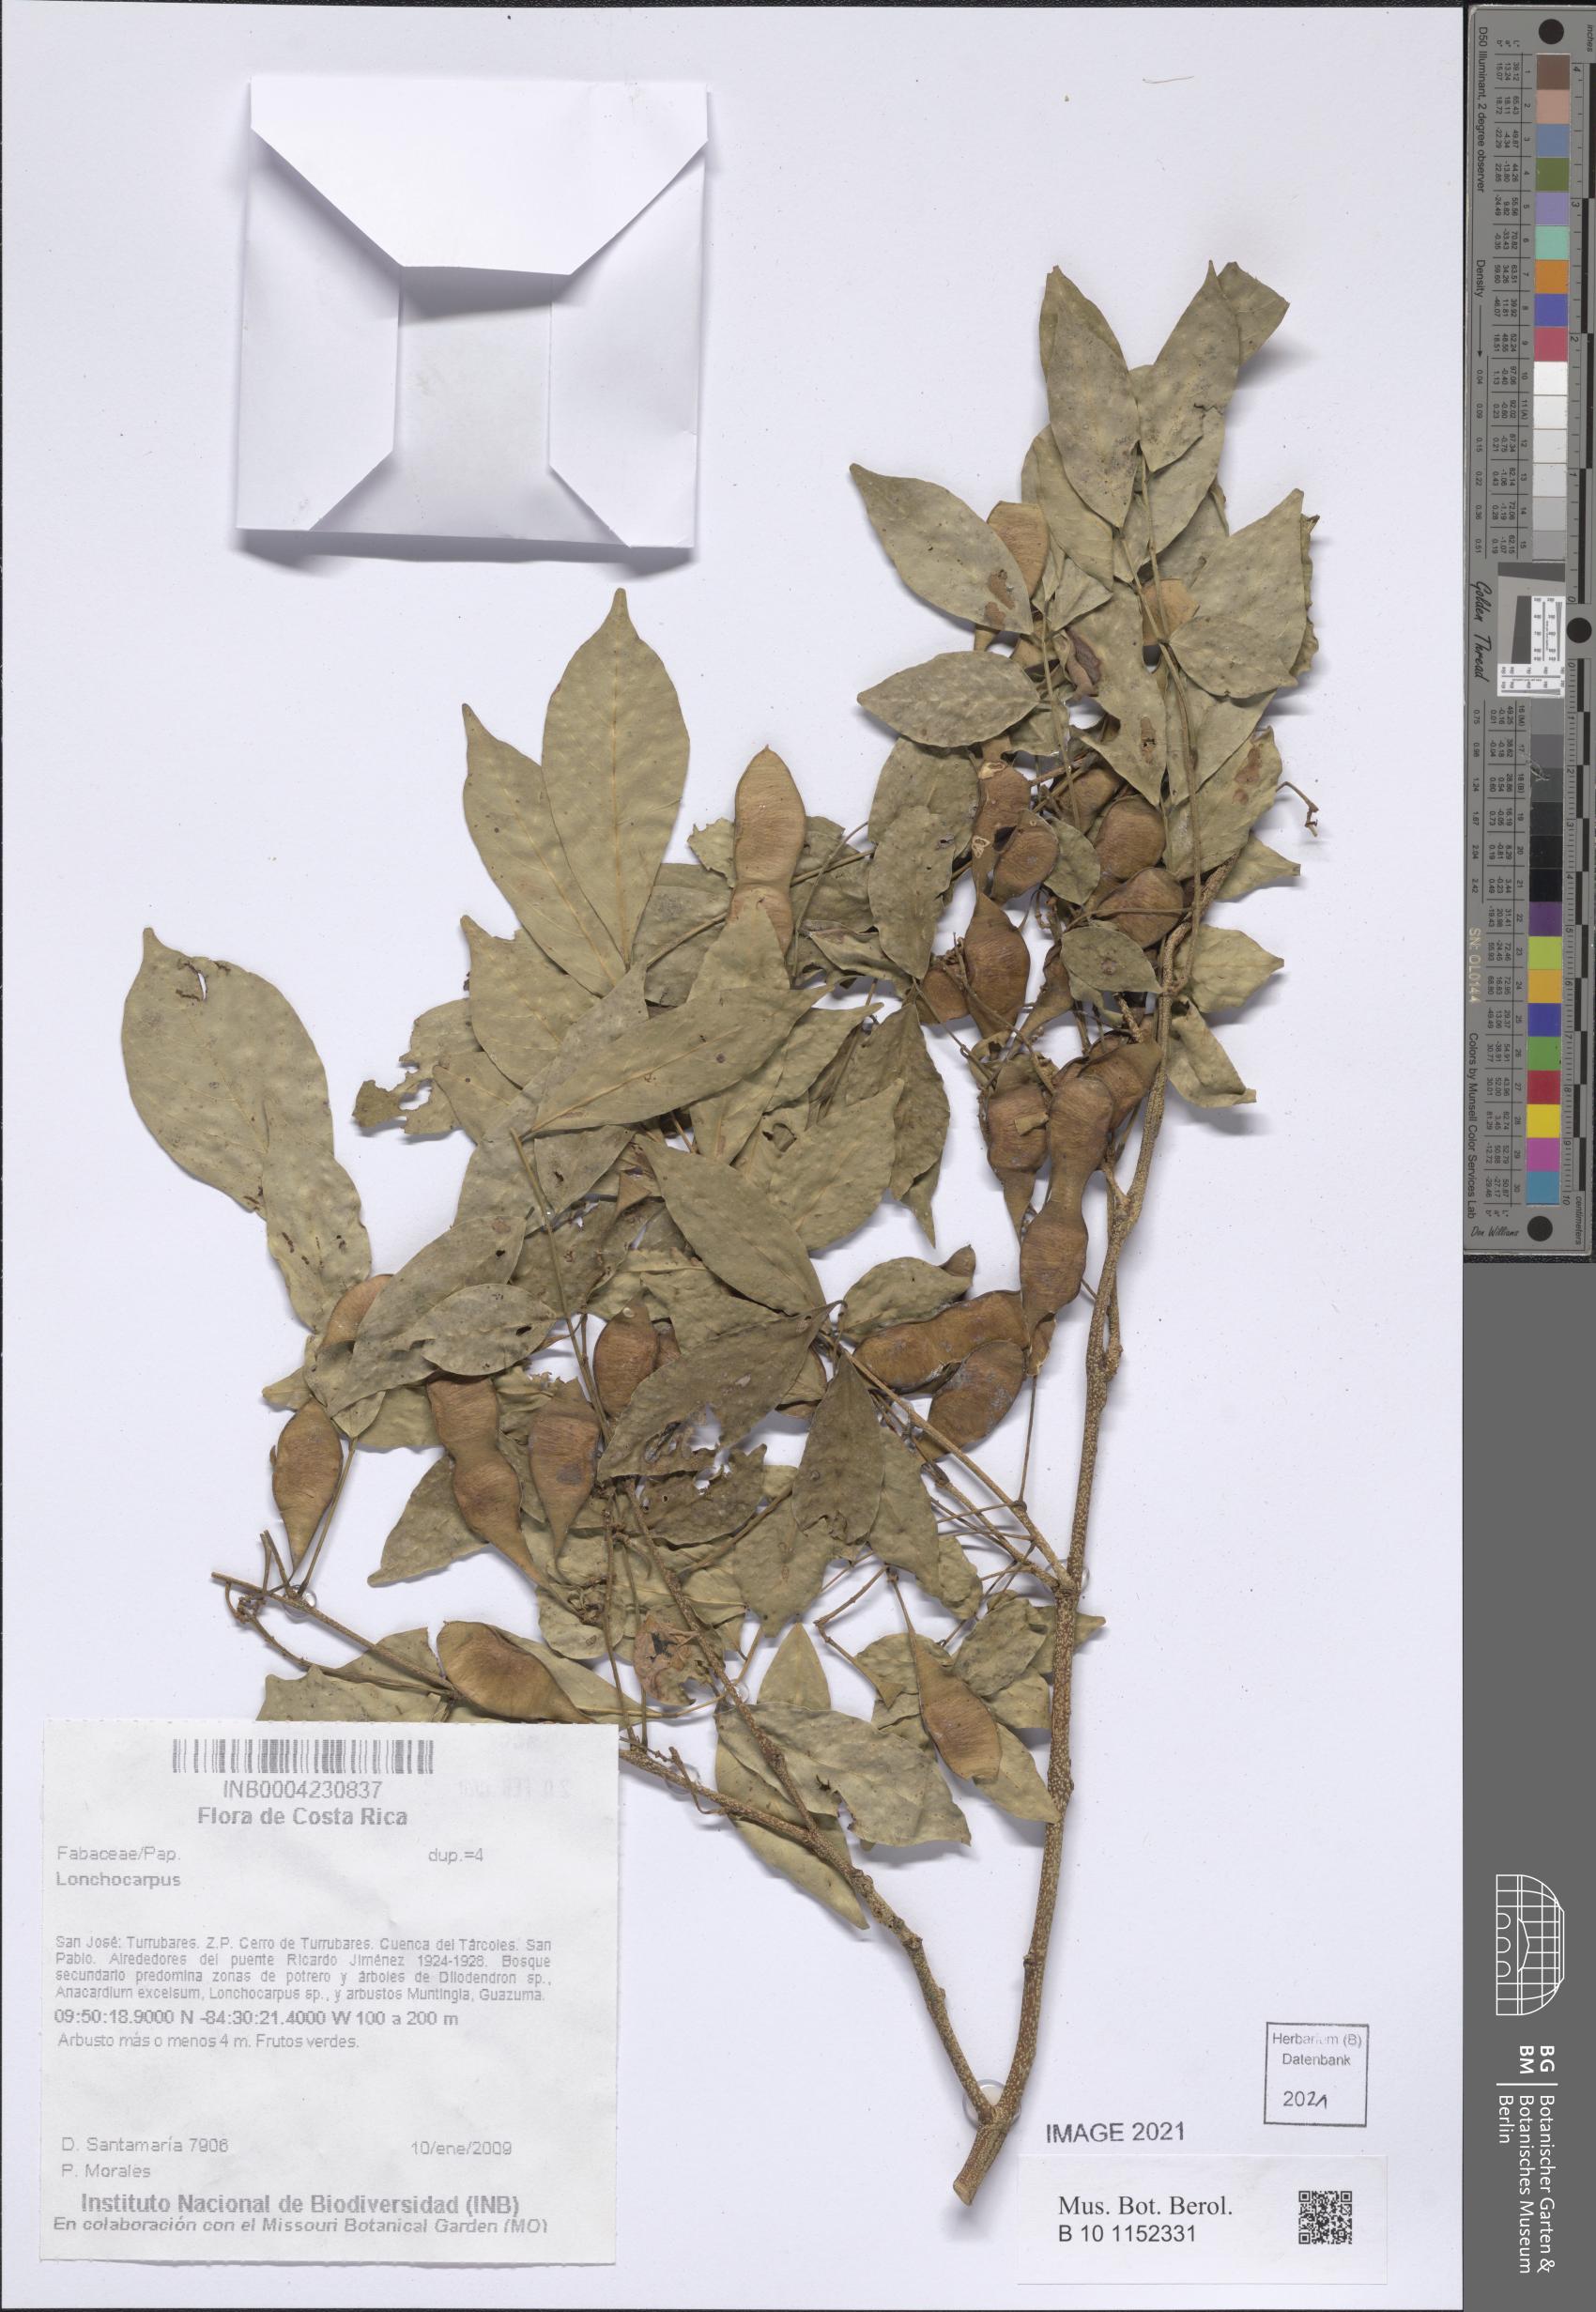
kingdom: Plantae
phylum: Tracheophyta
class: Magnoliopsida
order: Fabales
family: Fabaceae
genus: Lonchocarpus
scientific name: Lonchocarpus
